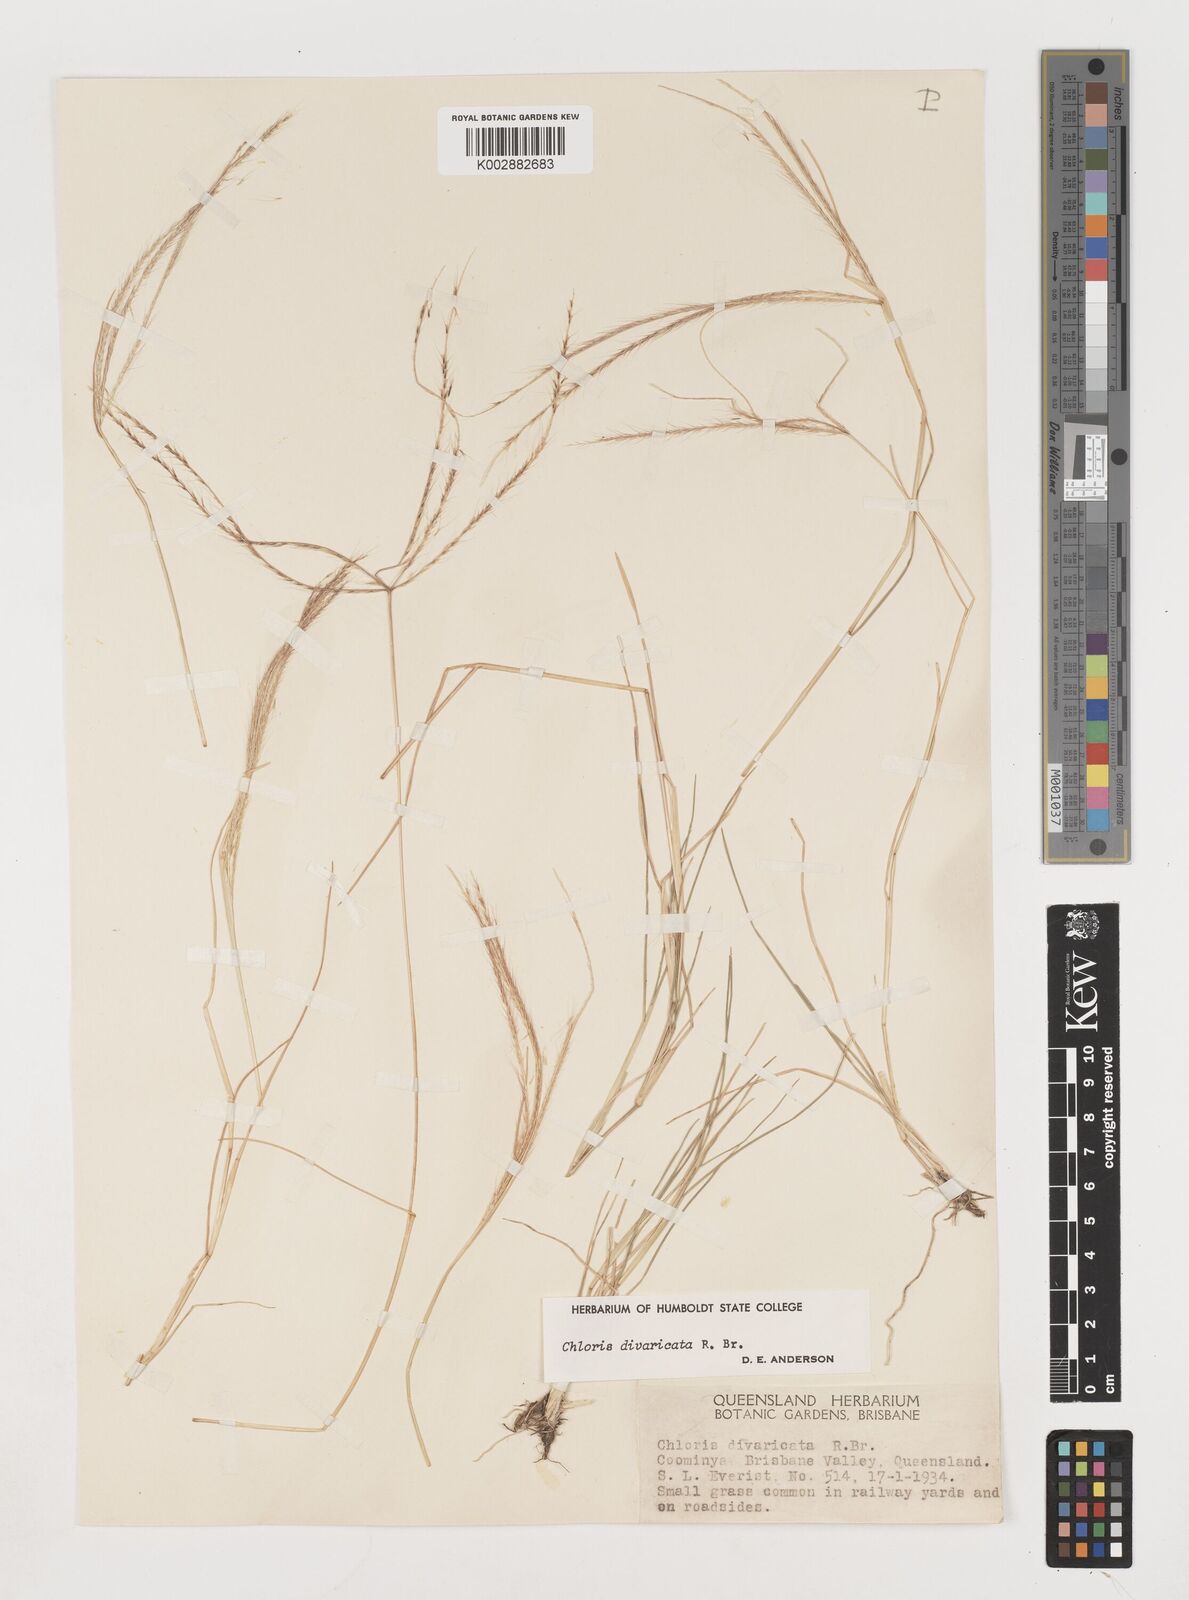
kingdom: Plantae
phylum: Tracheophyta
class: Liliopsida
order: Poales
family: Poaceae
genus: Chloris
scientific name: Chloris divaricata
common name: Spreading windmill grass
